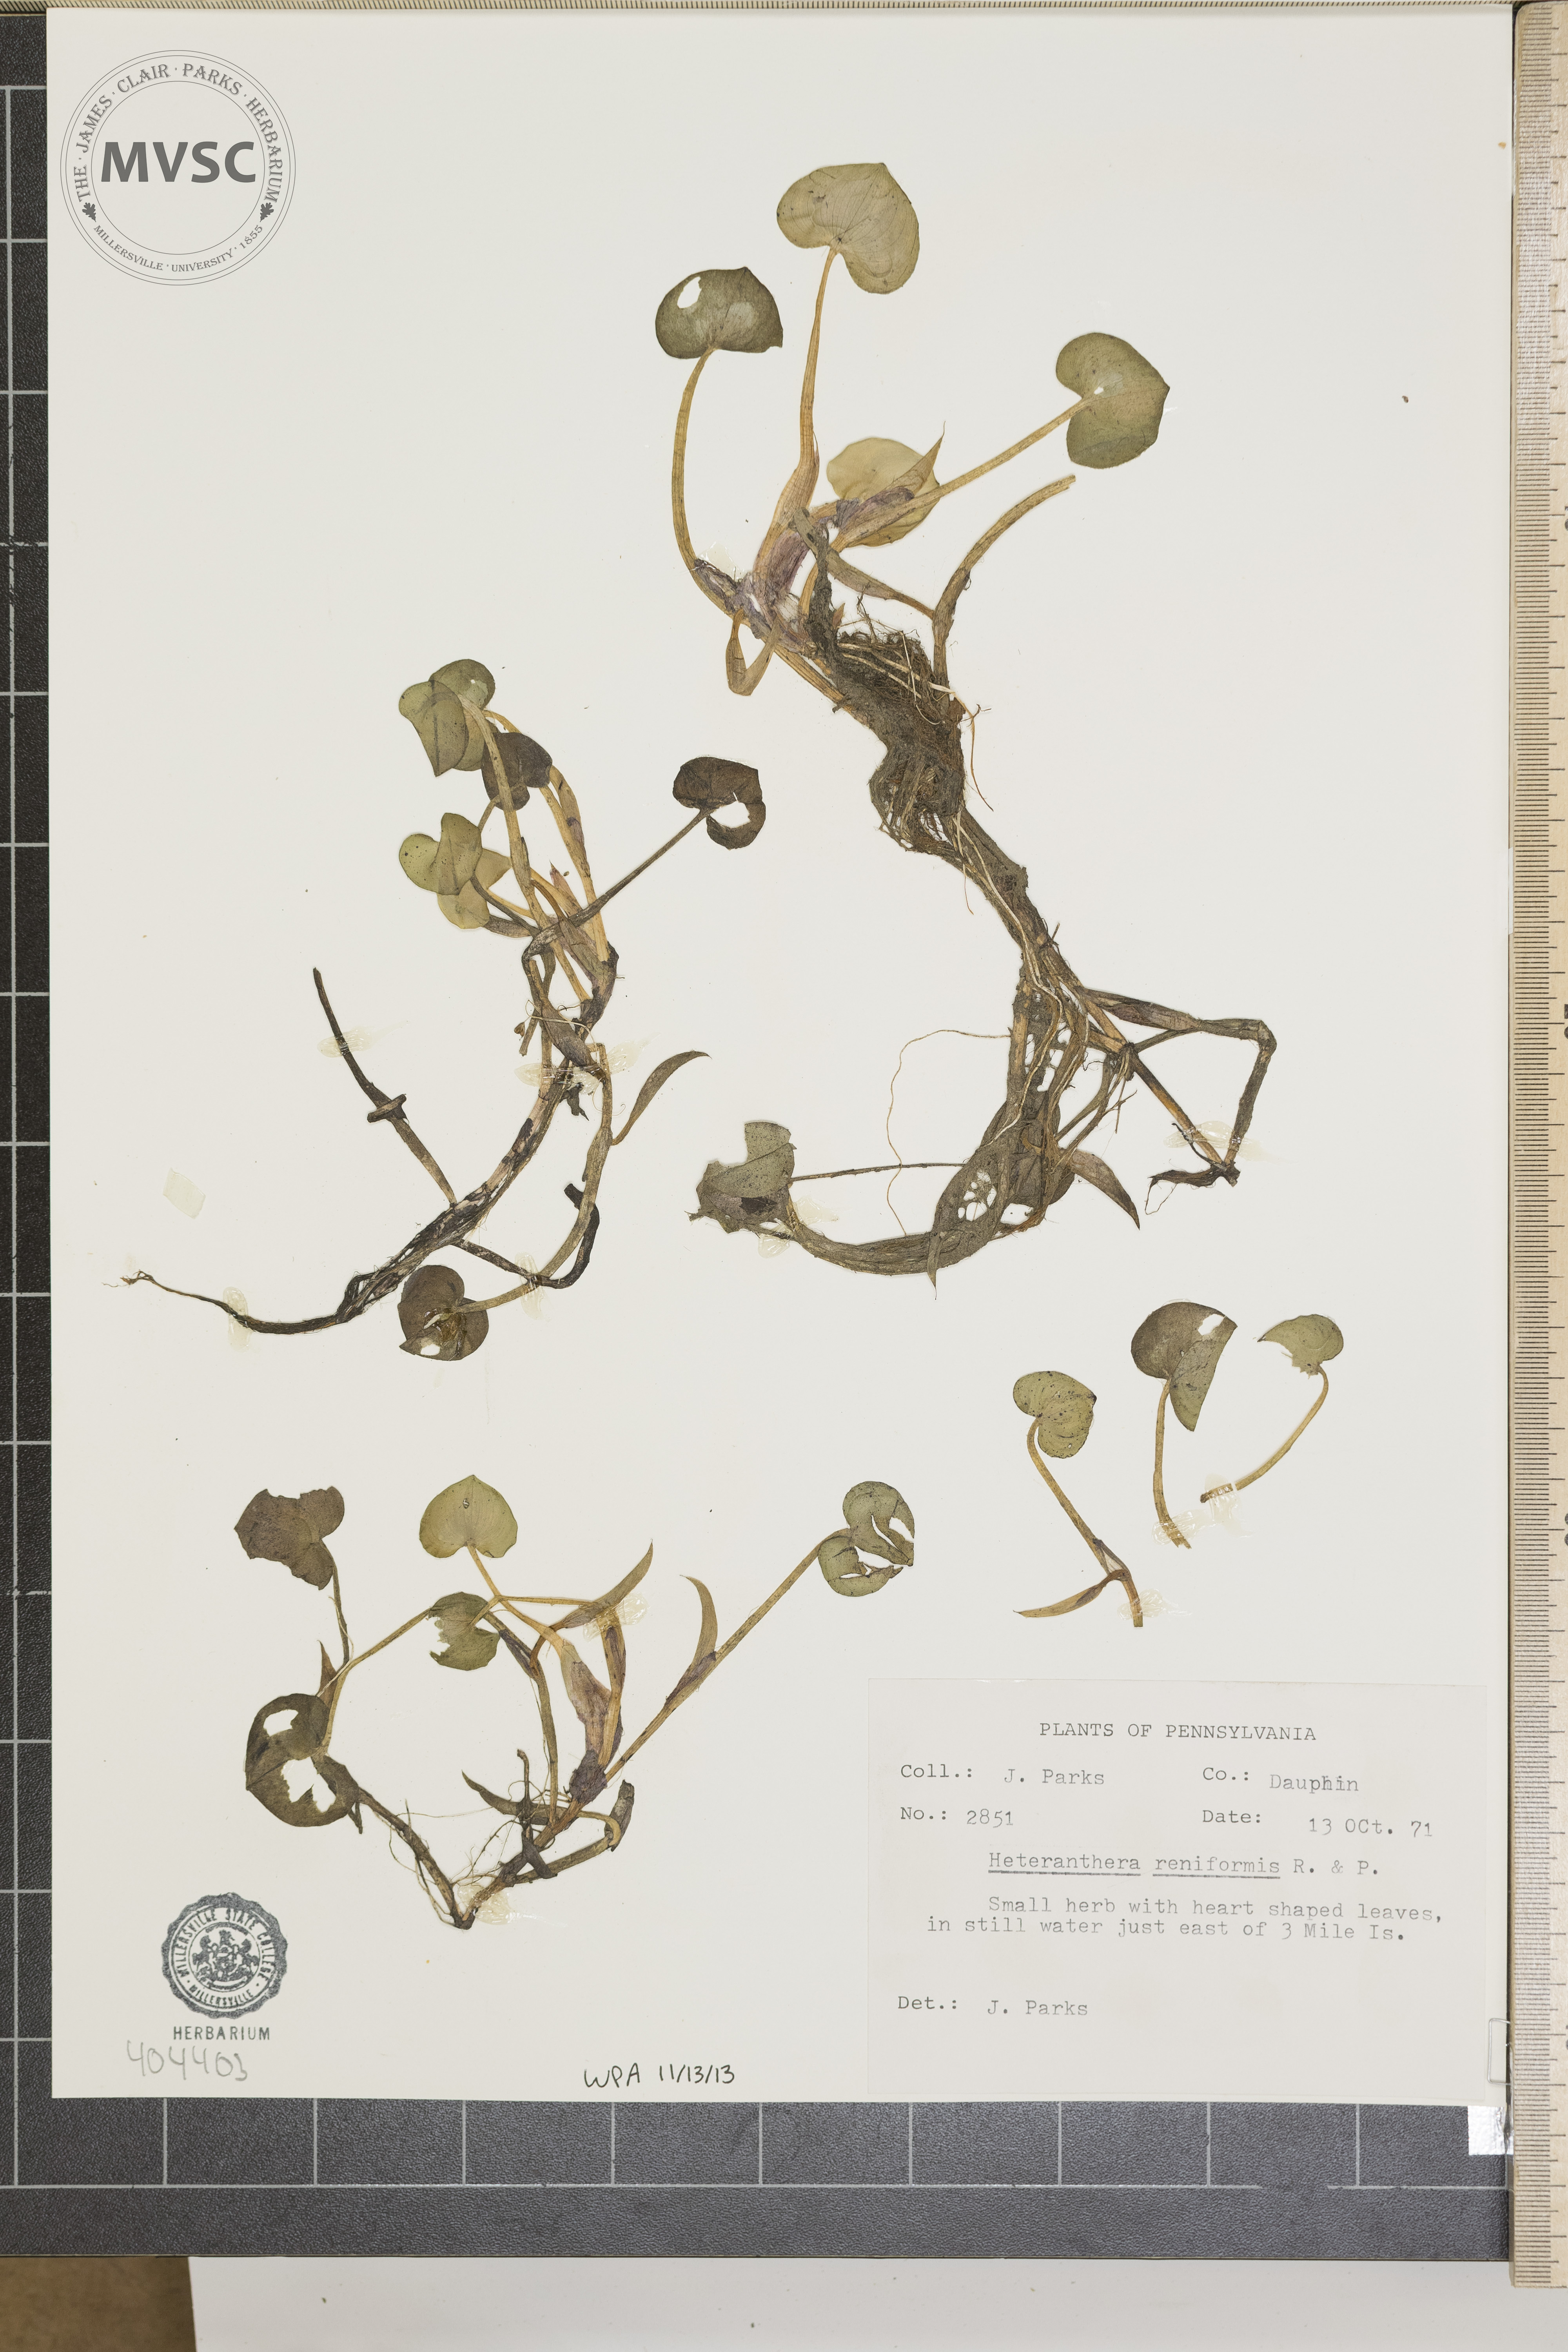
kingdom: Plantae
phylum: Tracheophyta
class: Liliopsida
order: Commelinales
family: Pontederiaceae
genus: Heteranthera
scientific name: Heteranthera reniformis
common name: Kidneyleaf mudplantain
